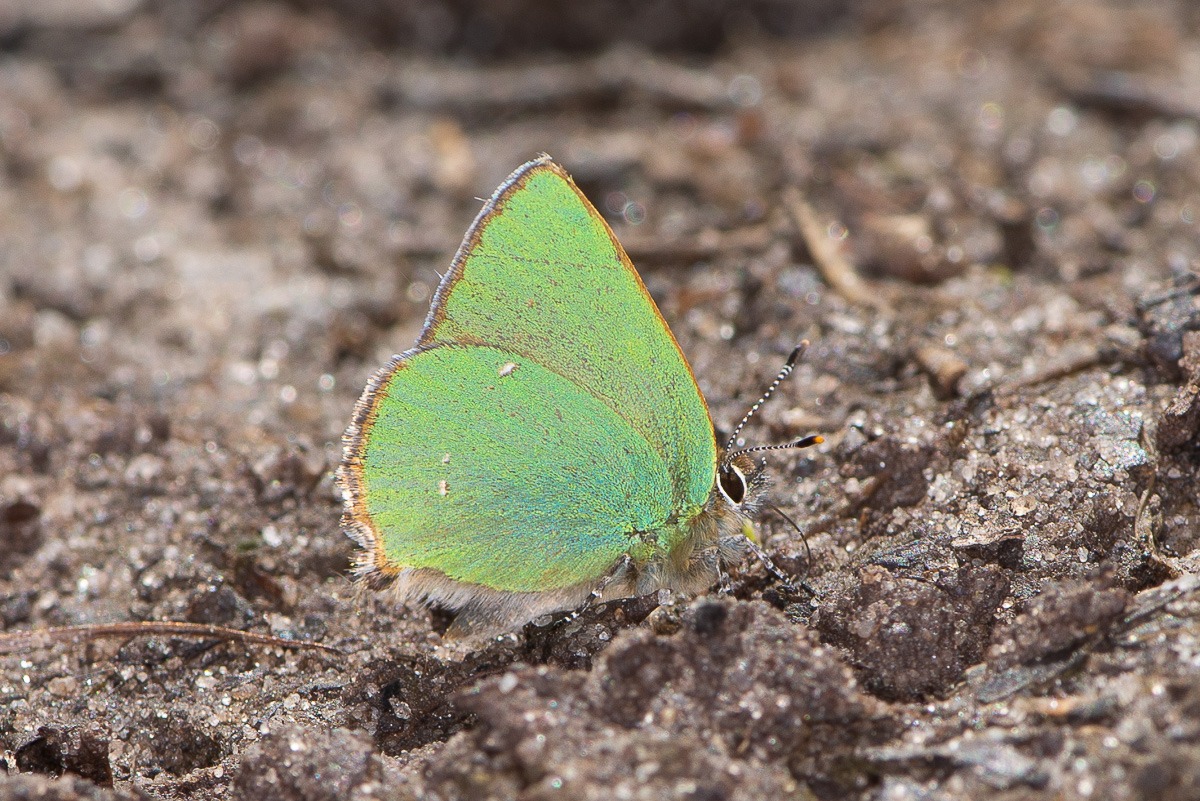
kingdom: Animalia
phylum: Arthropoda
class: Insecta
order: Lepidoptera
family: Lycaenidae
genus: Callophrys
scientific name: Callophrys rubi
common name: Grøn busksommerfugl
